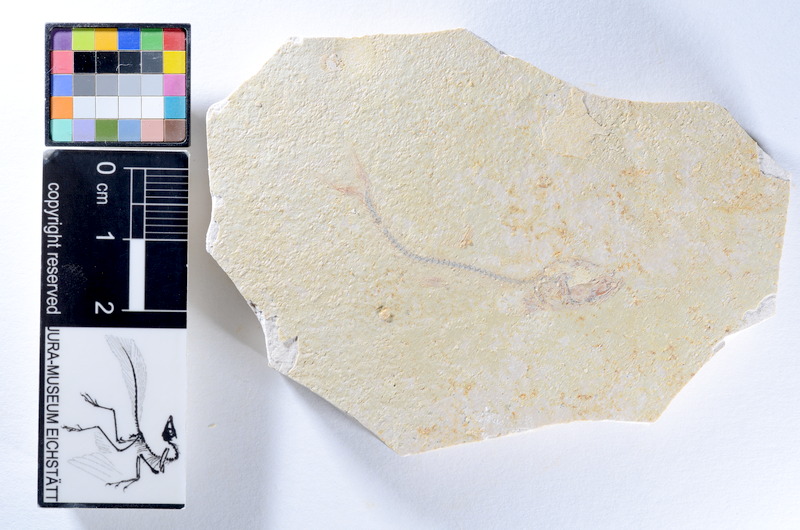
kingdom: Animalia
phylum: Chordata
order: Salmoniformes
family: Orthogonikleithridae
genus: Orthogonikleithrus
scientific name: Orthogonikleithrus hoelli
